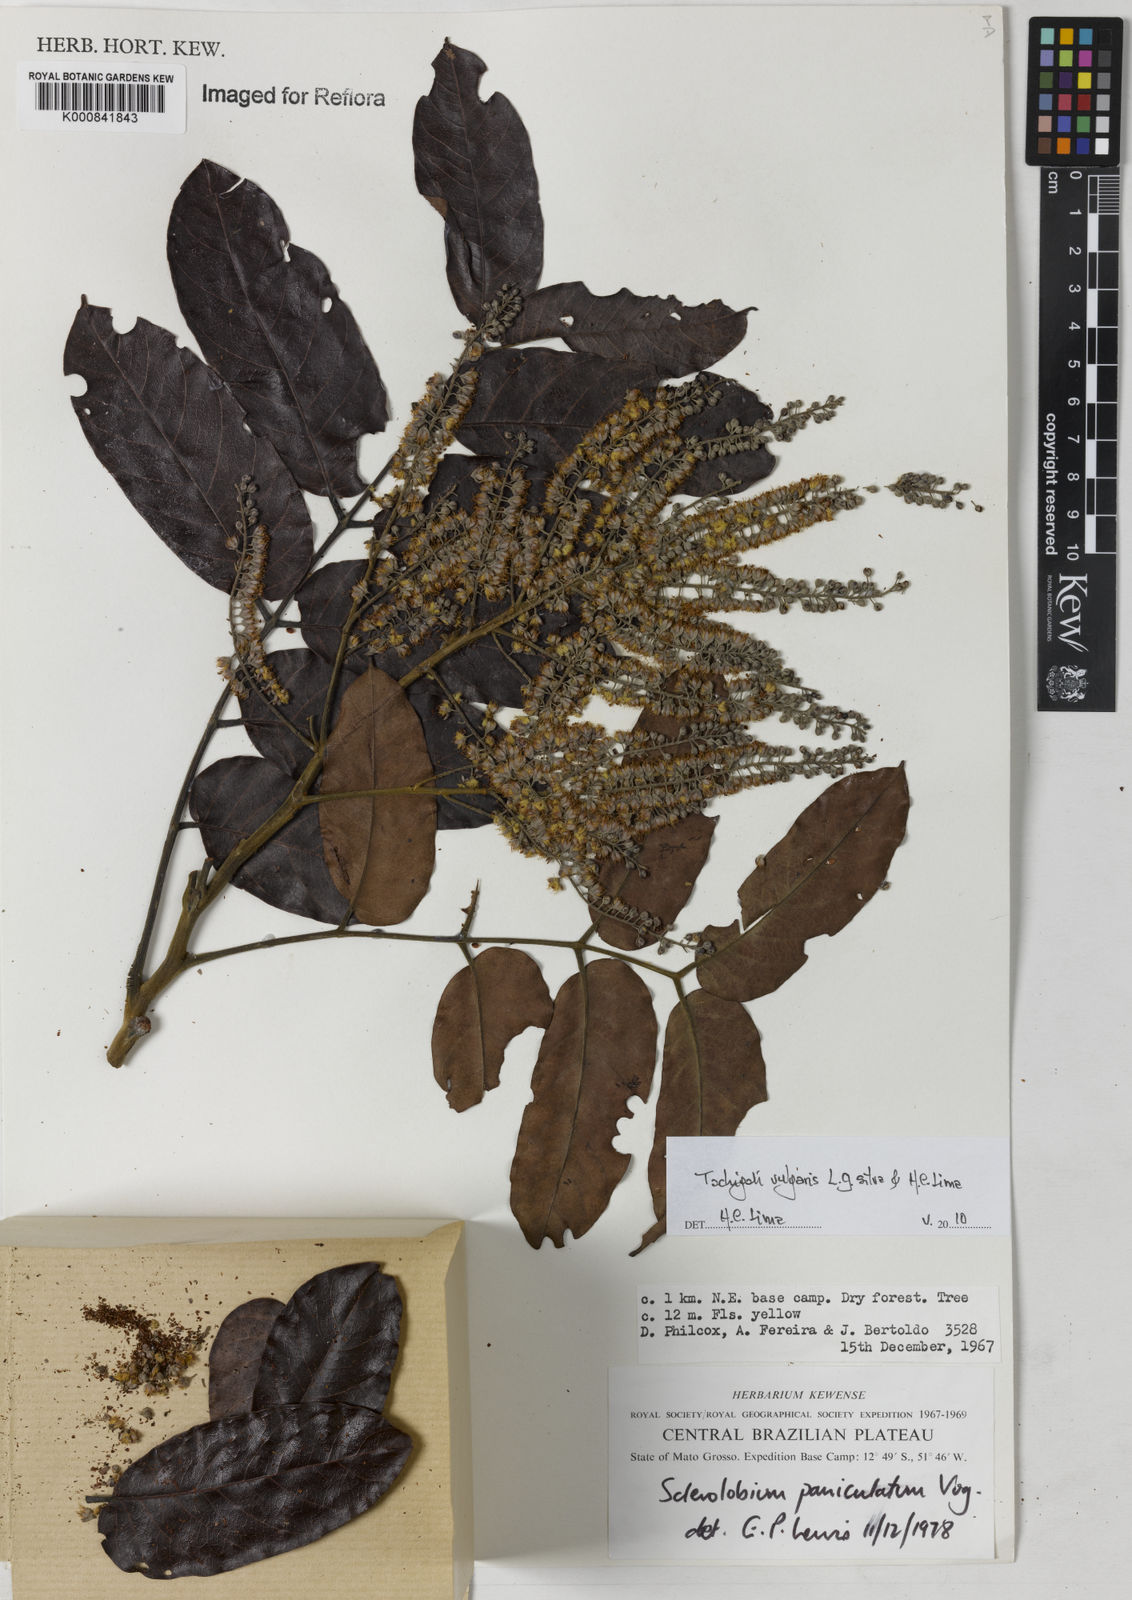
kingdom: Plantae
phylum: Tracheophyta
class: Magnoliopsida
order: Fabales
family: Fabaceae
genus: Tachigali
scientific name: Tachigali vulgaris
